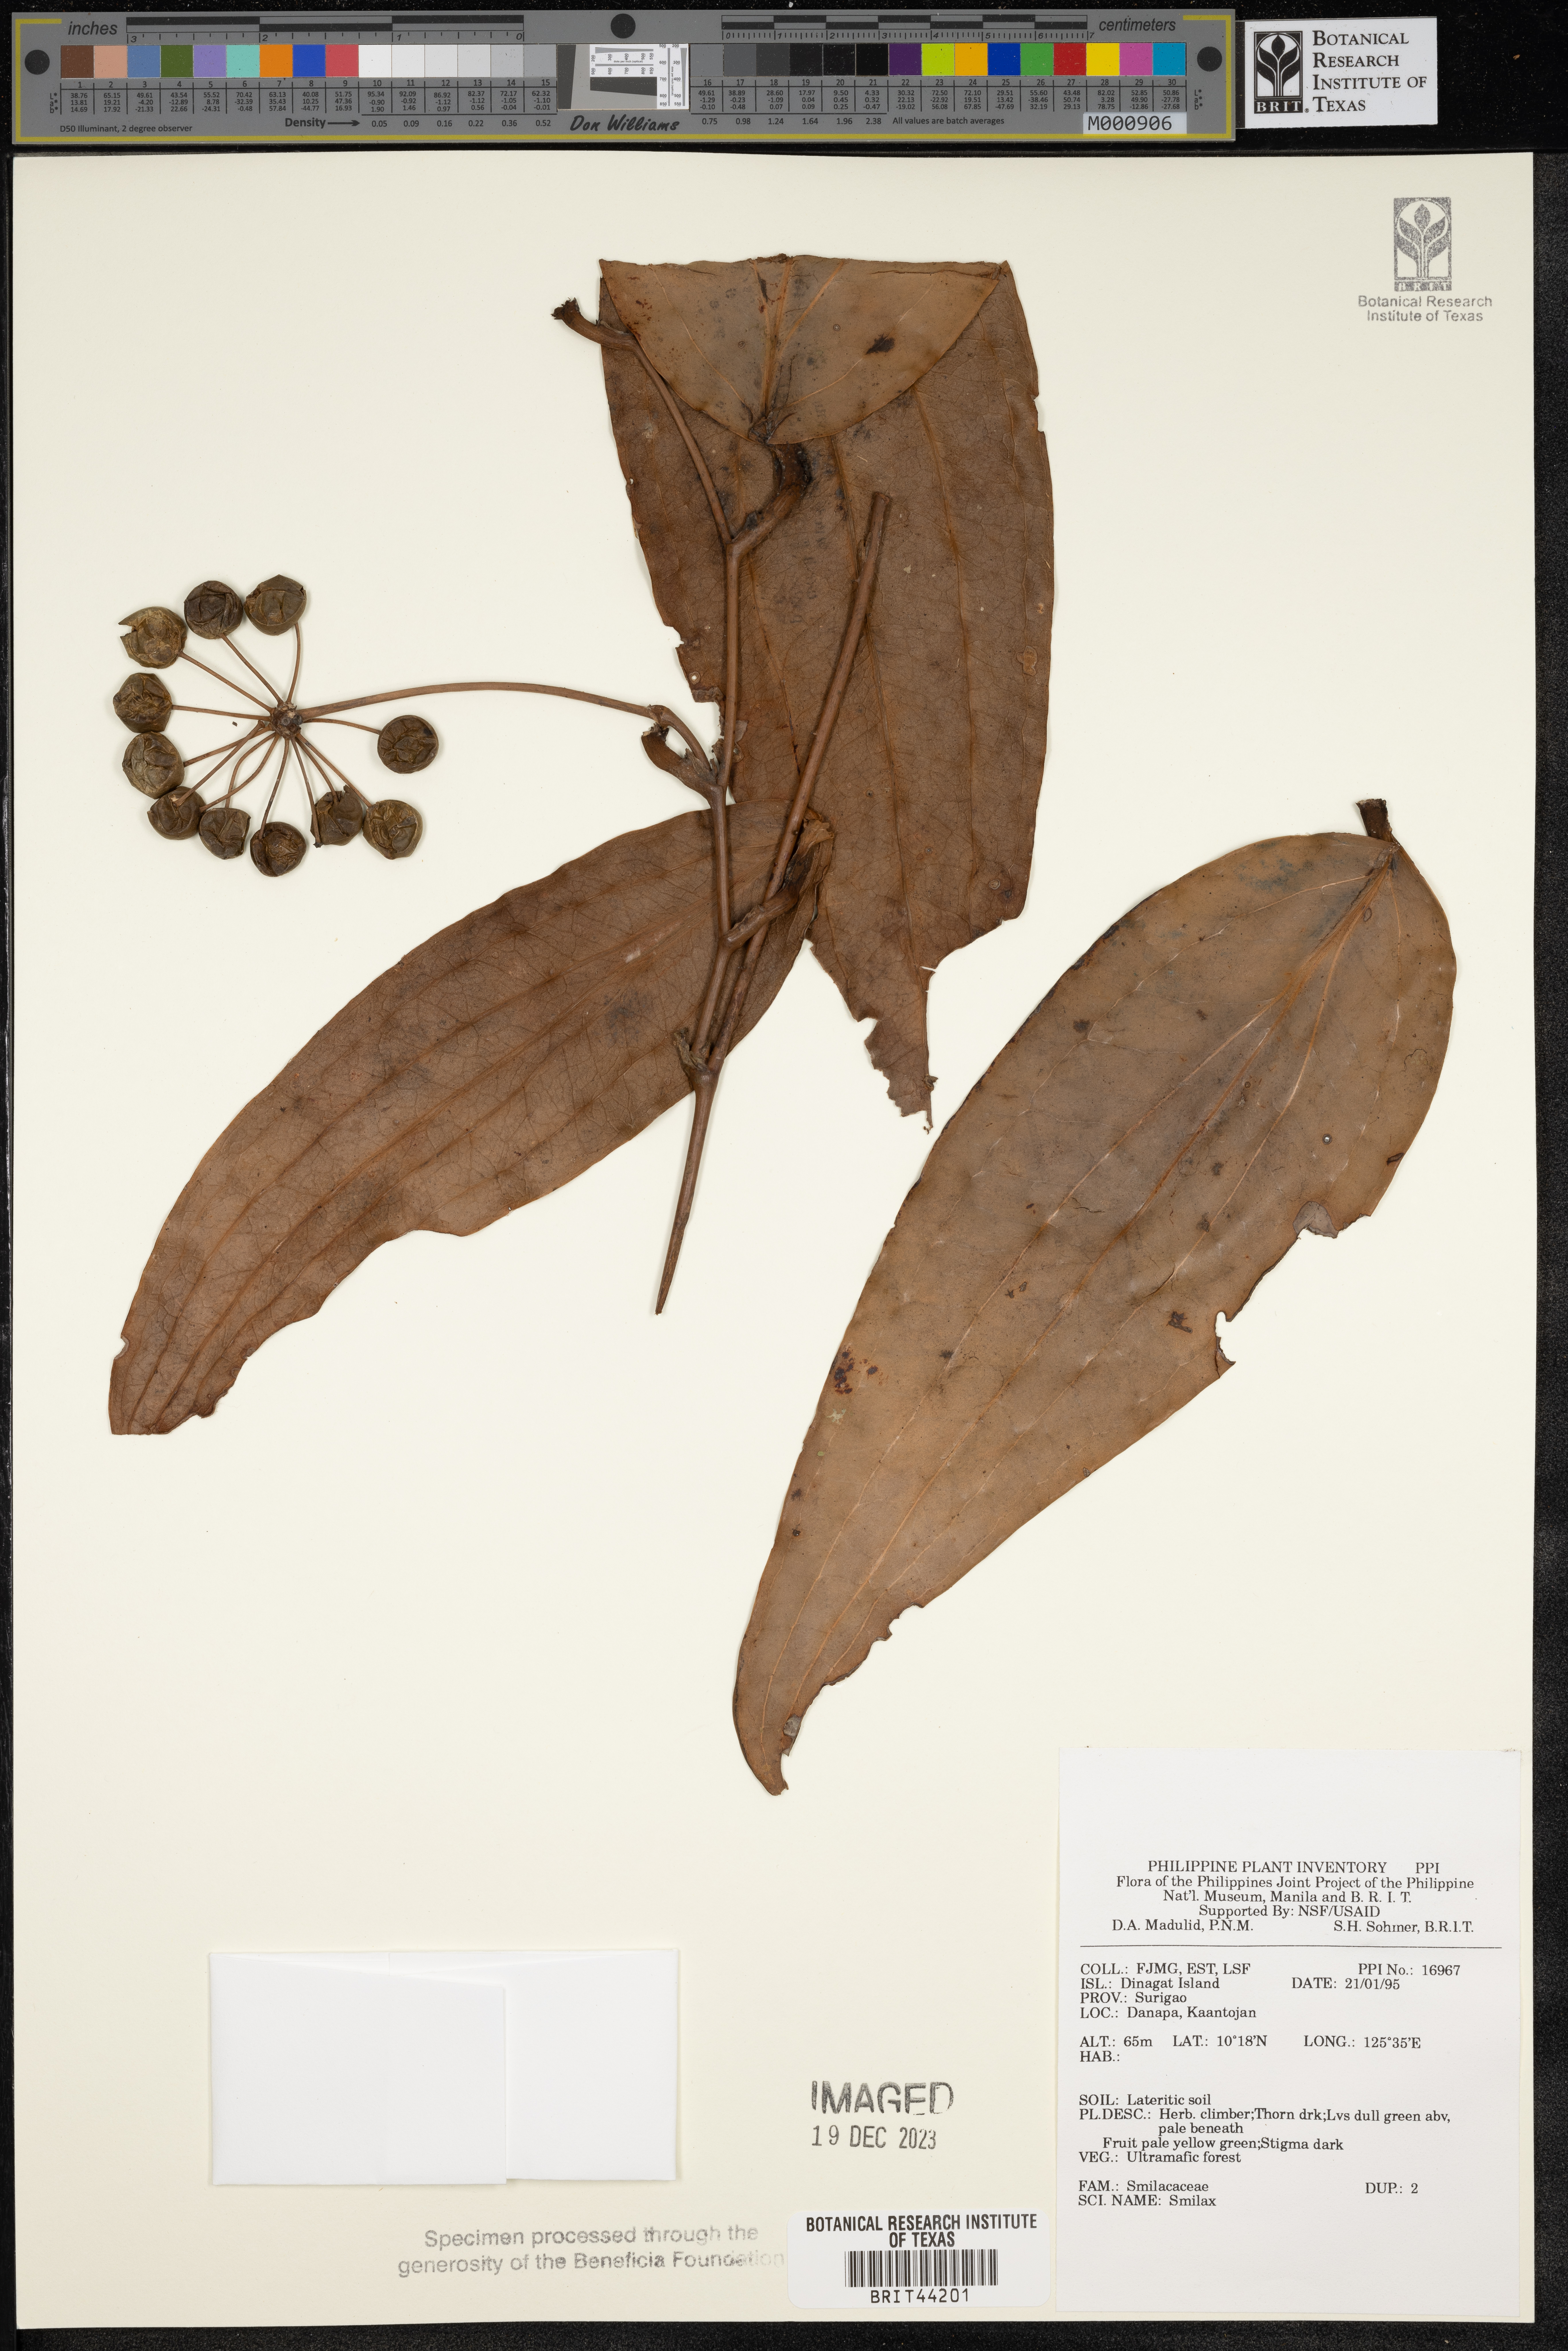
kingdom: Plantae
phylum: Tracheophyta
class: Liliopsida
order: Liliales
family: Smilacaceae
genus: Smilax
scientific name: Smilax
